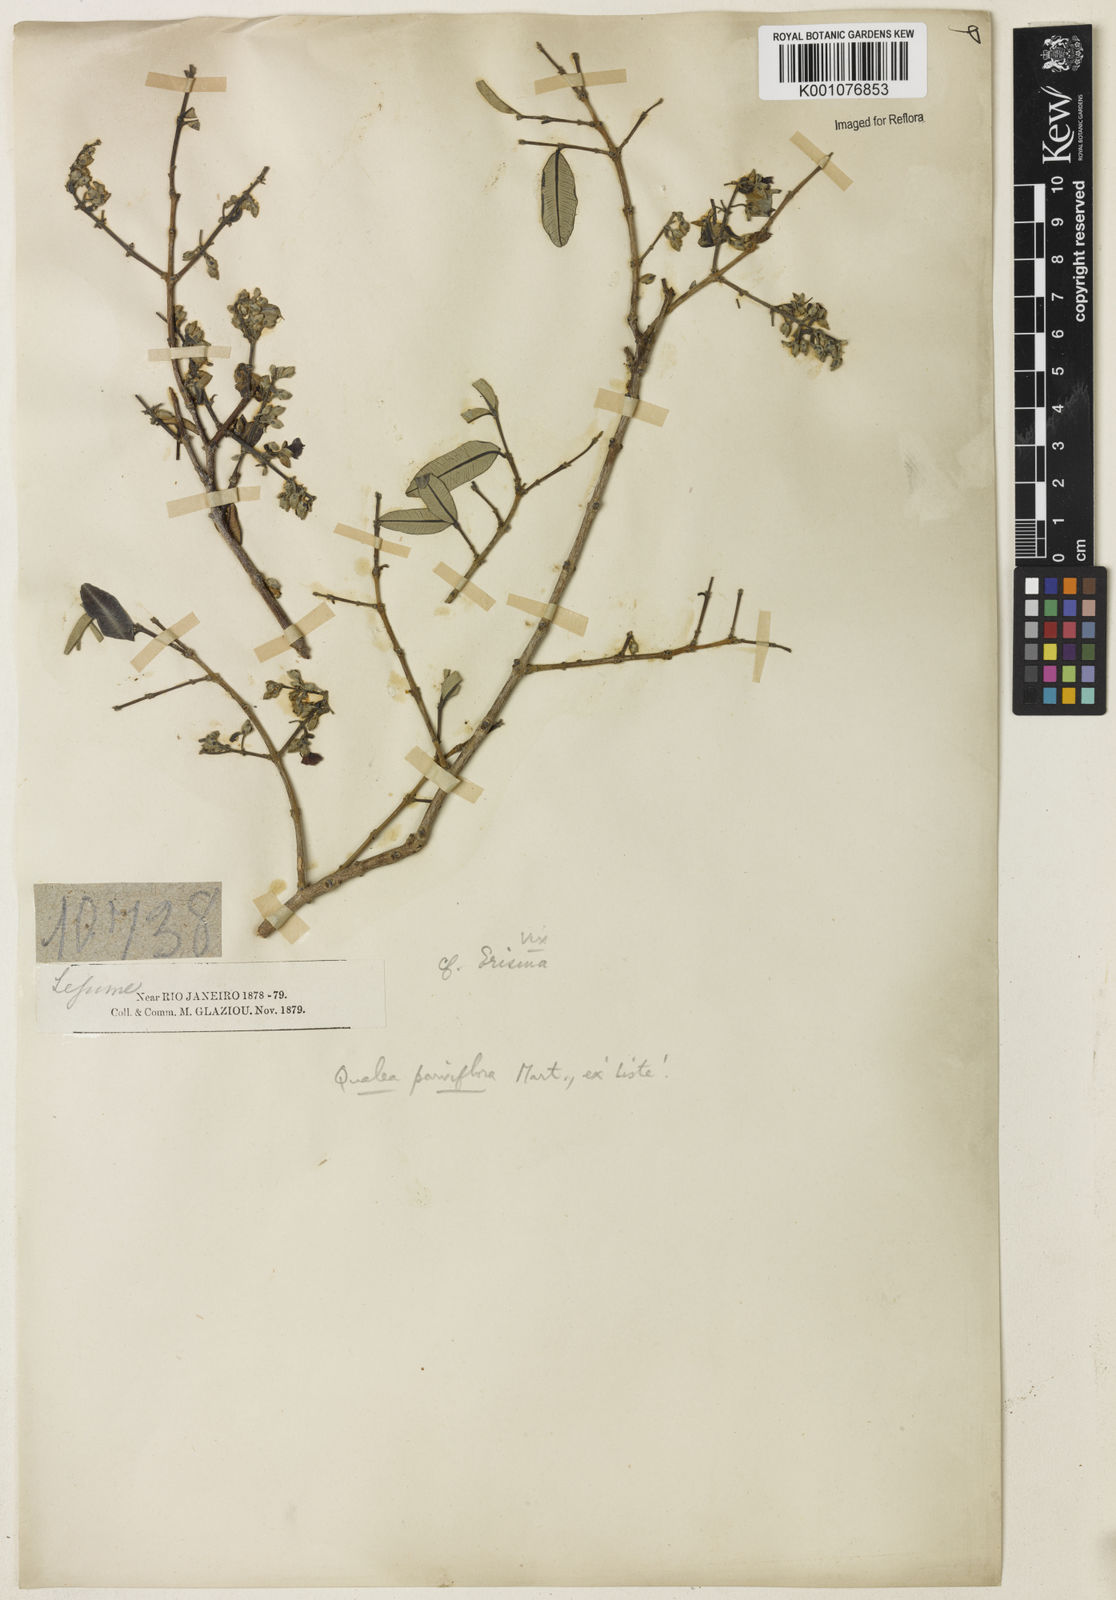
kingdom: Plantae
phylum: Tracheophyta
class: Magnoliopsida
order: Myrtales
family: Vochysiaceae
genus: Qualea
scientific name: Qualea parviflora
